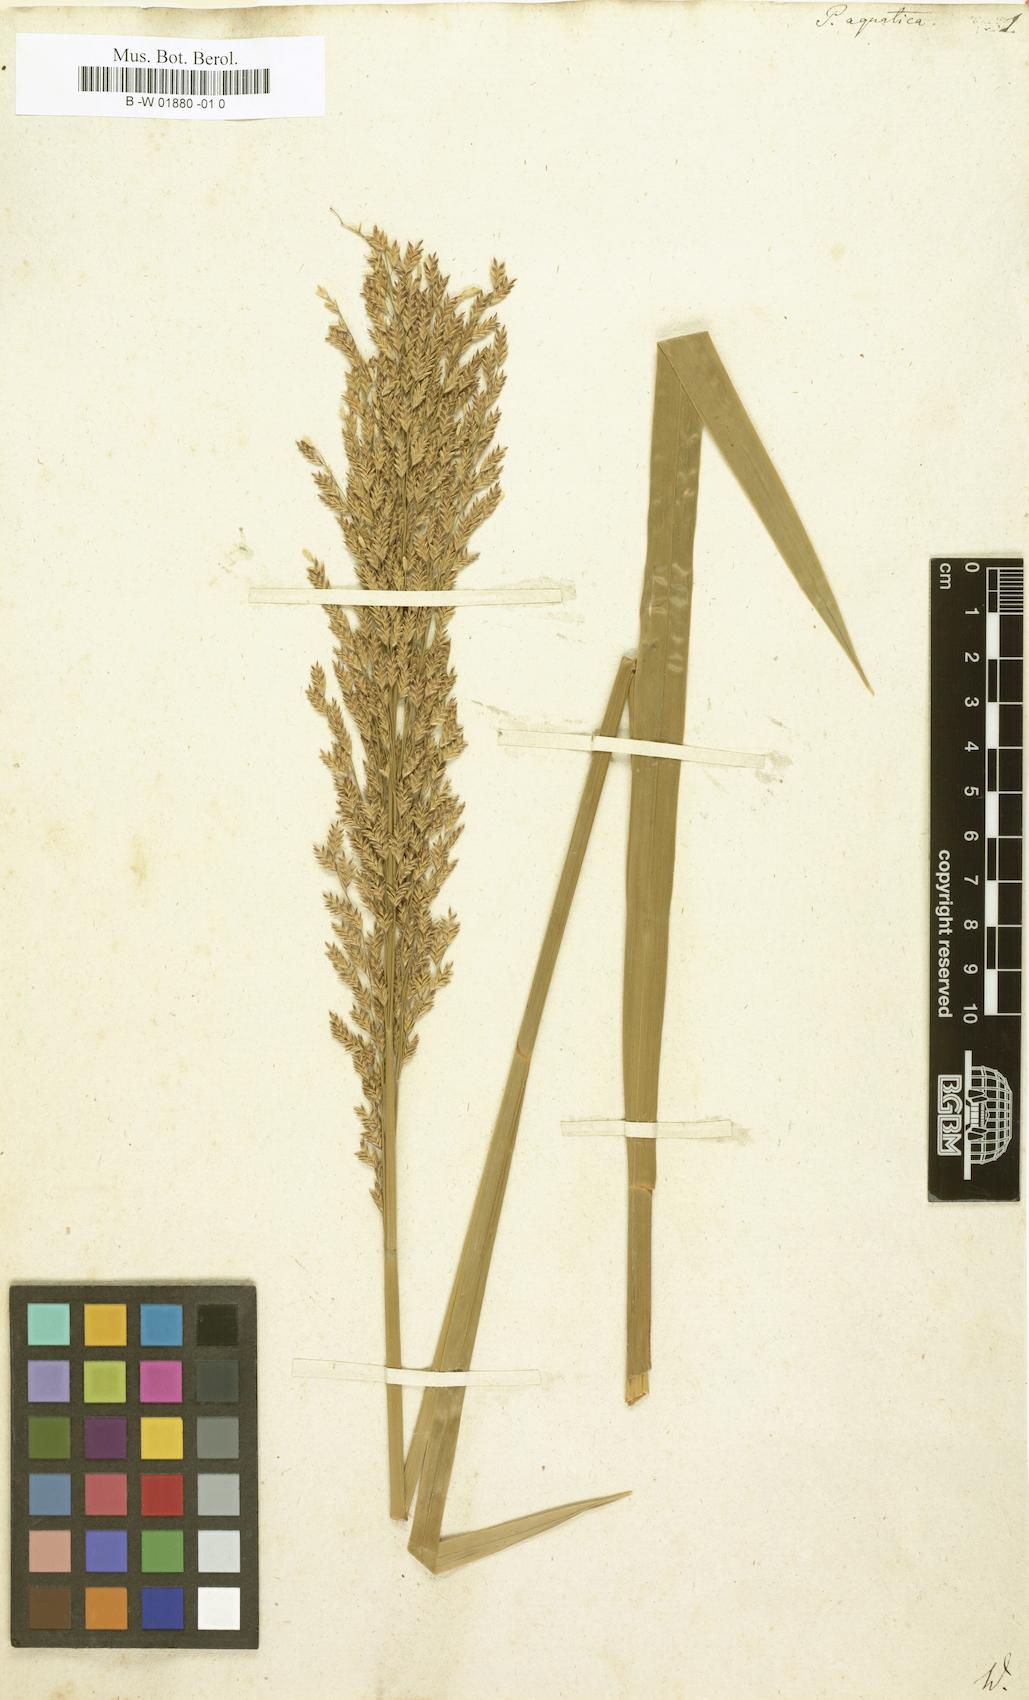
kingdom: Plantae
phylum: Tracheophyta
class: Liliopsida
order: Poales
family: Poaceae
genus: Glyceria
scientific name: Glyceria maxima
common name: Reed mannagrass
